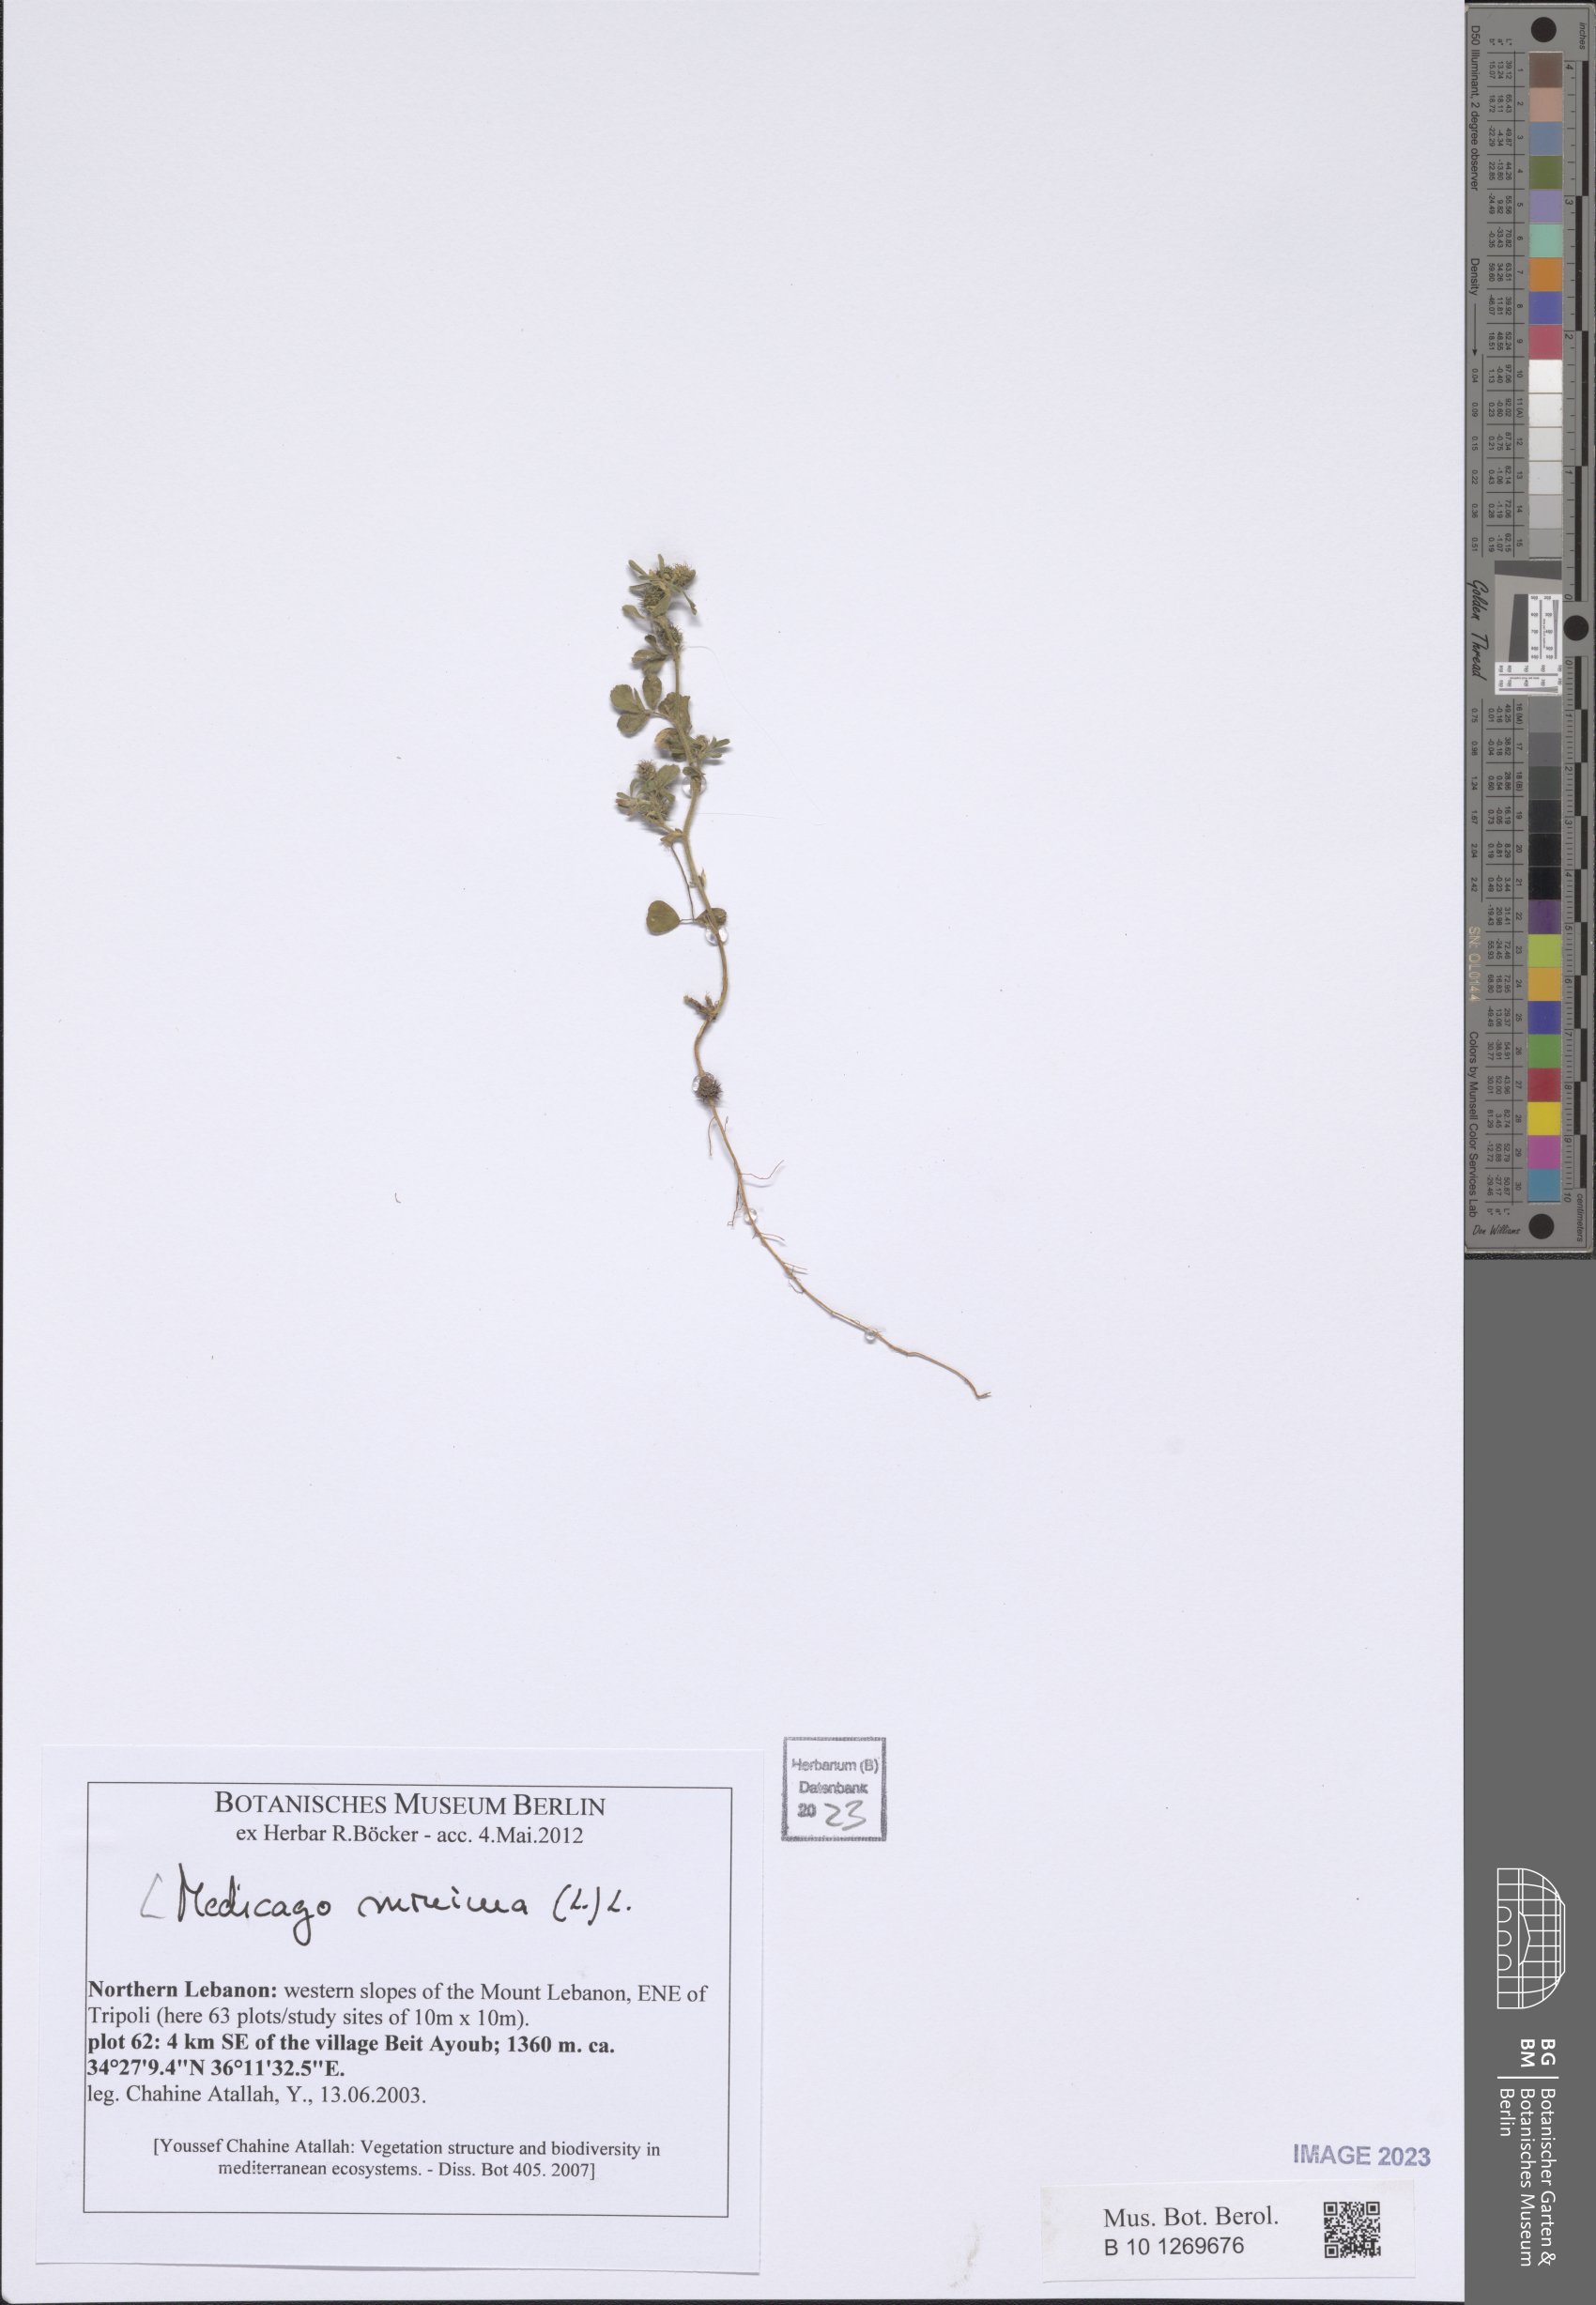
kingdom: Plantae
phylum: Tracheophyta
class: Magnoliopsida
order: Fabales
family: Fabaceae
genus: Medicago
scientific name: Medicago minima
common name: Little bur-clover
